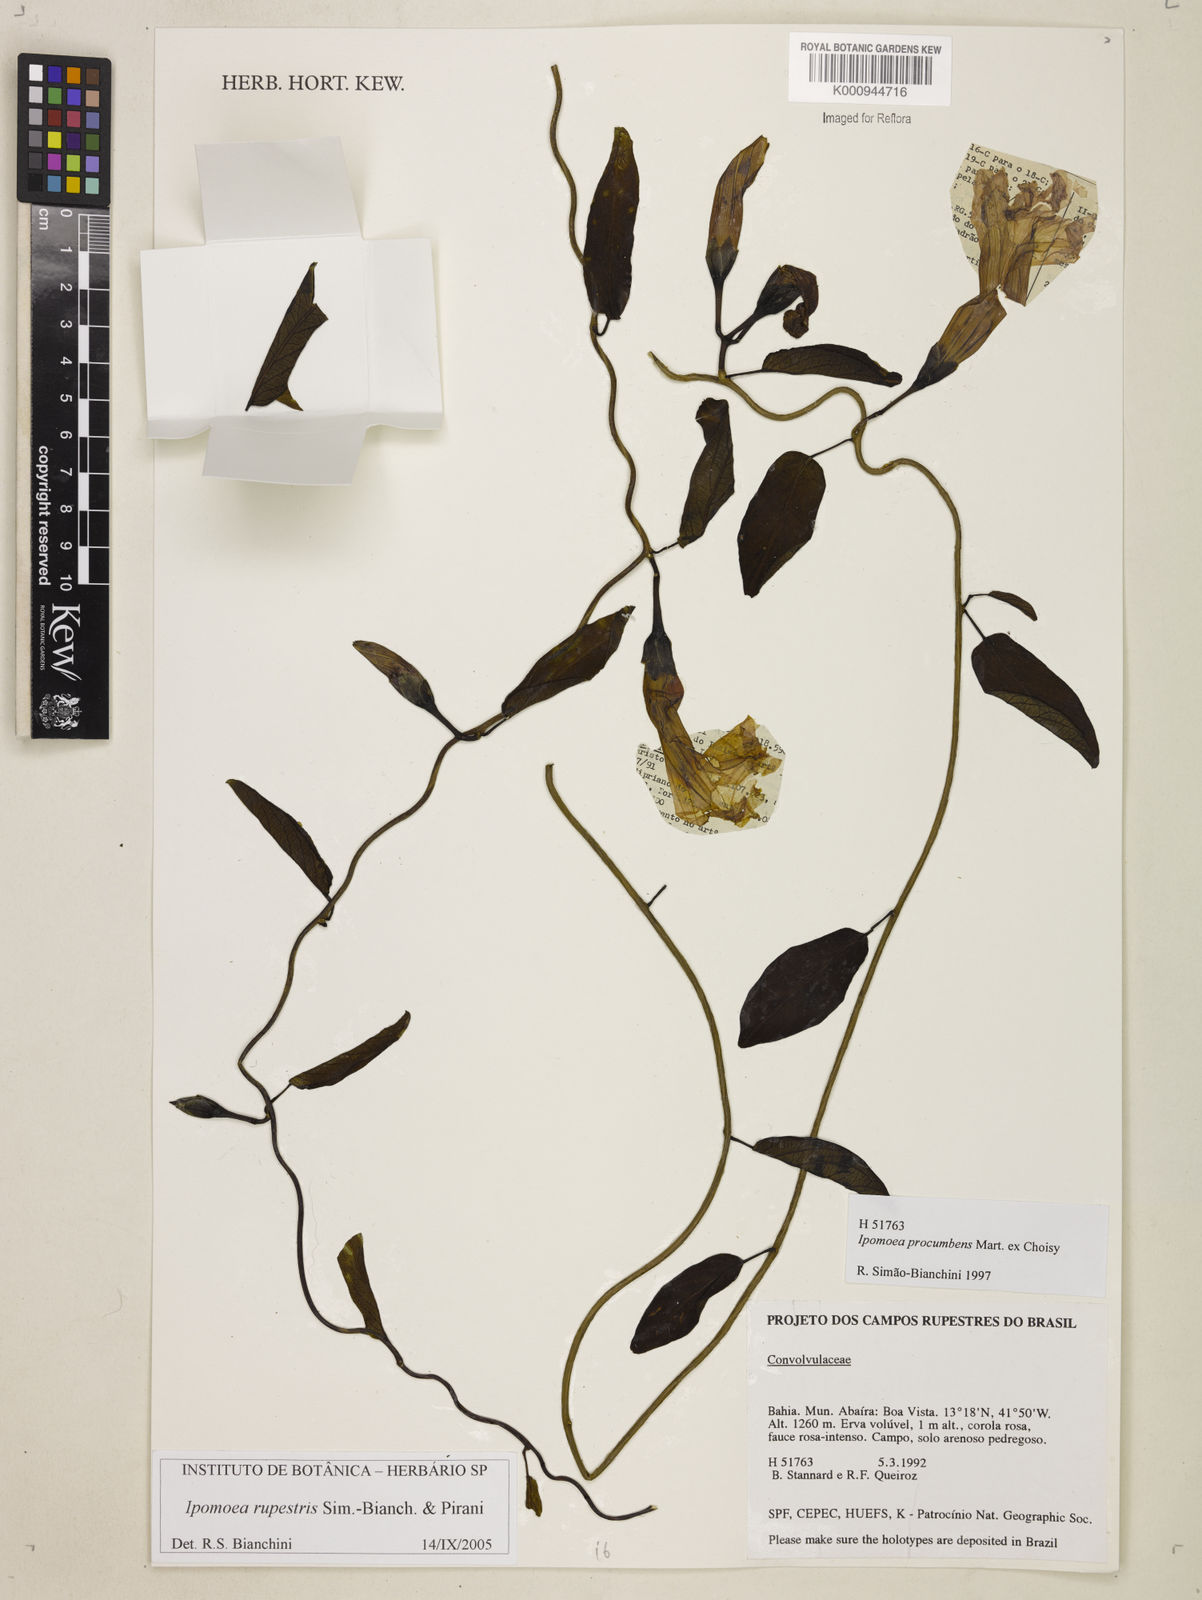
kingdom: Plantae
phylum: Tracheophyta
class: Magnoliopsida
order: Solanales
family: Convolvulaceae
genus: Ipomoea
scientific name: Ipomoea rupestris
